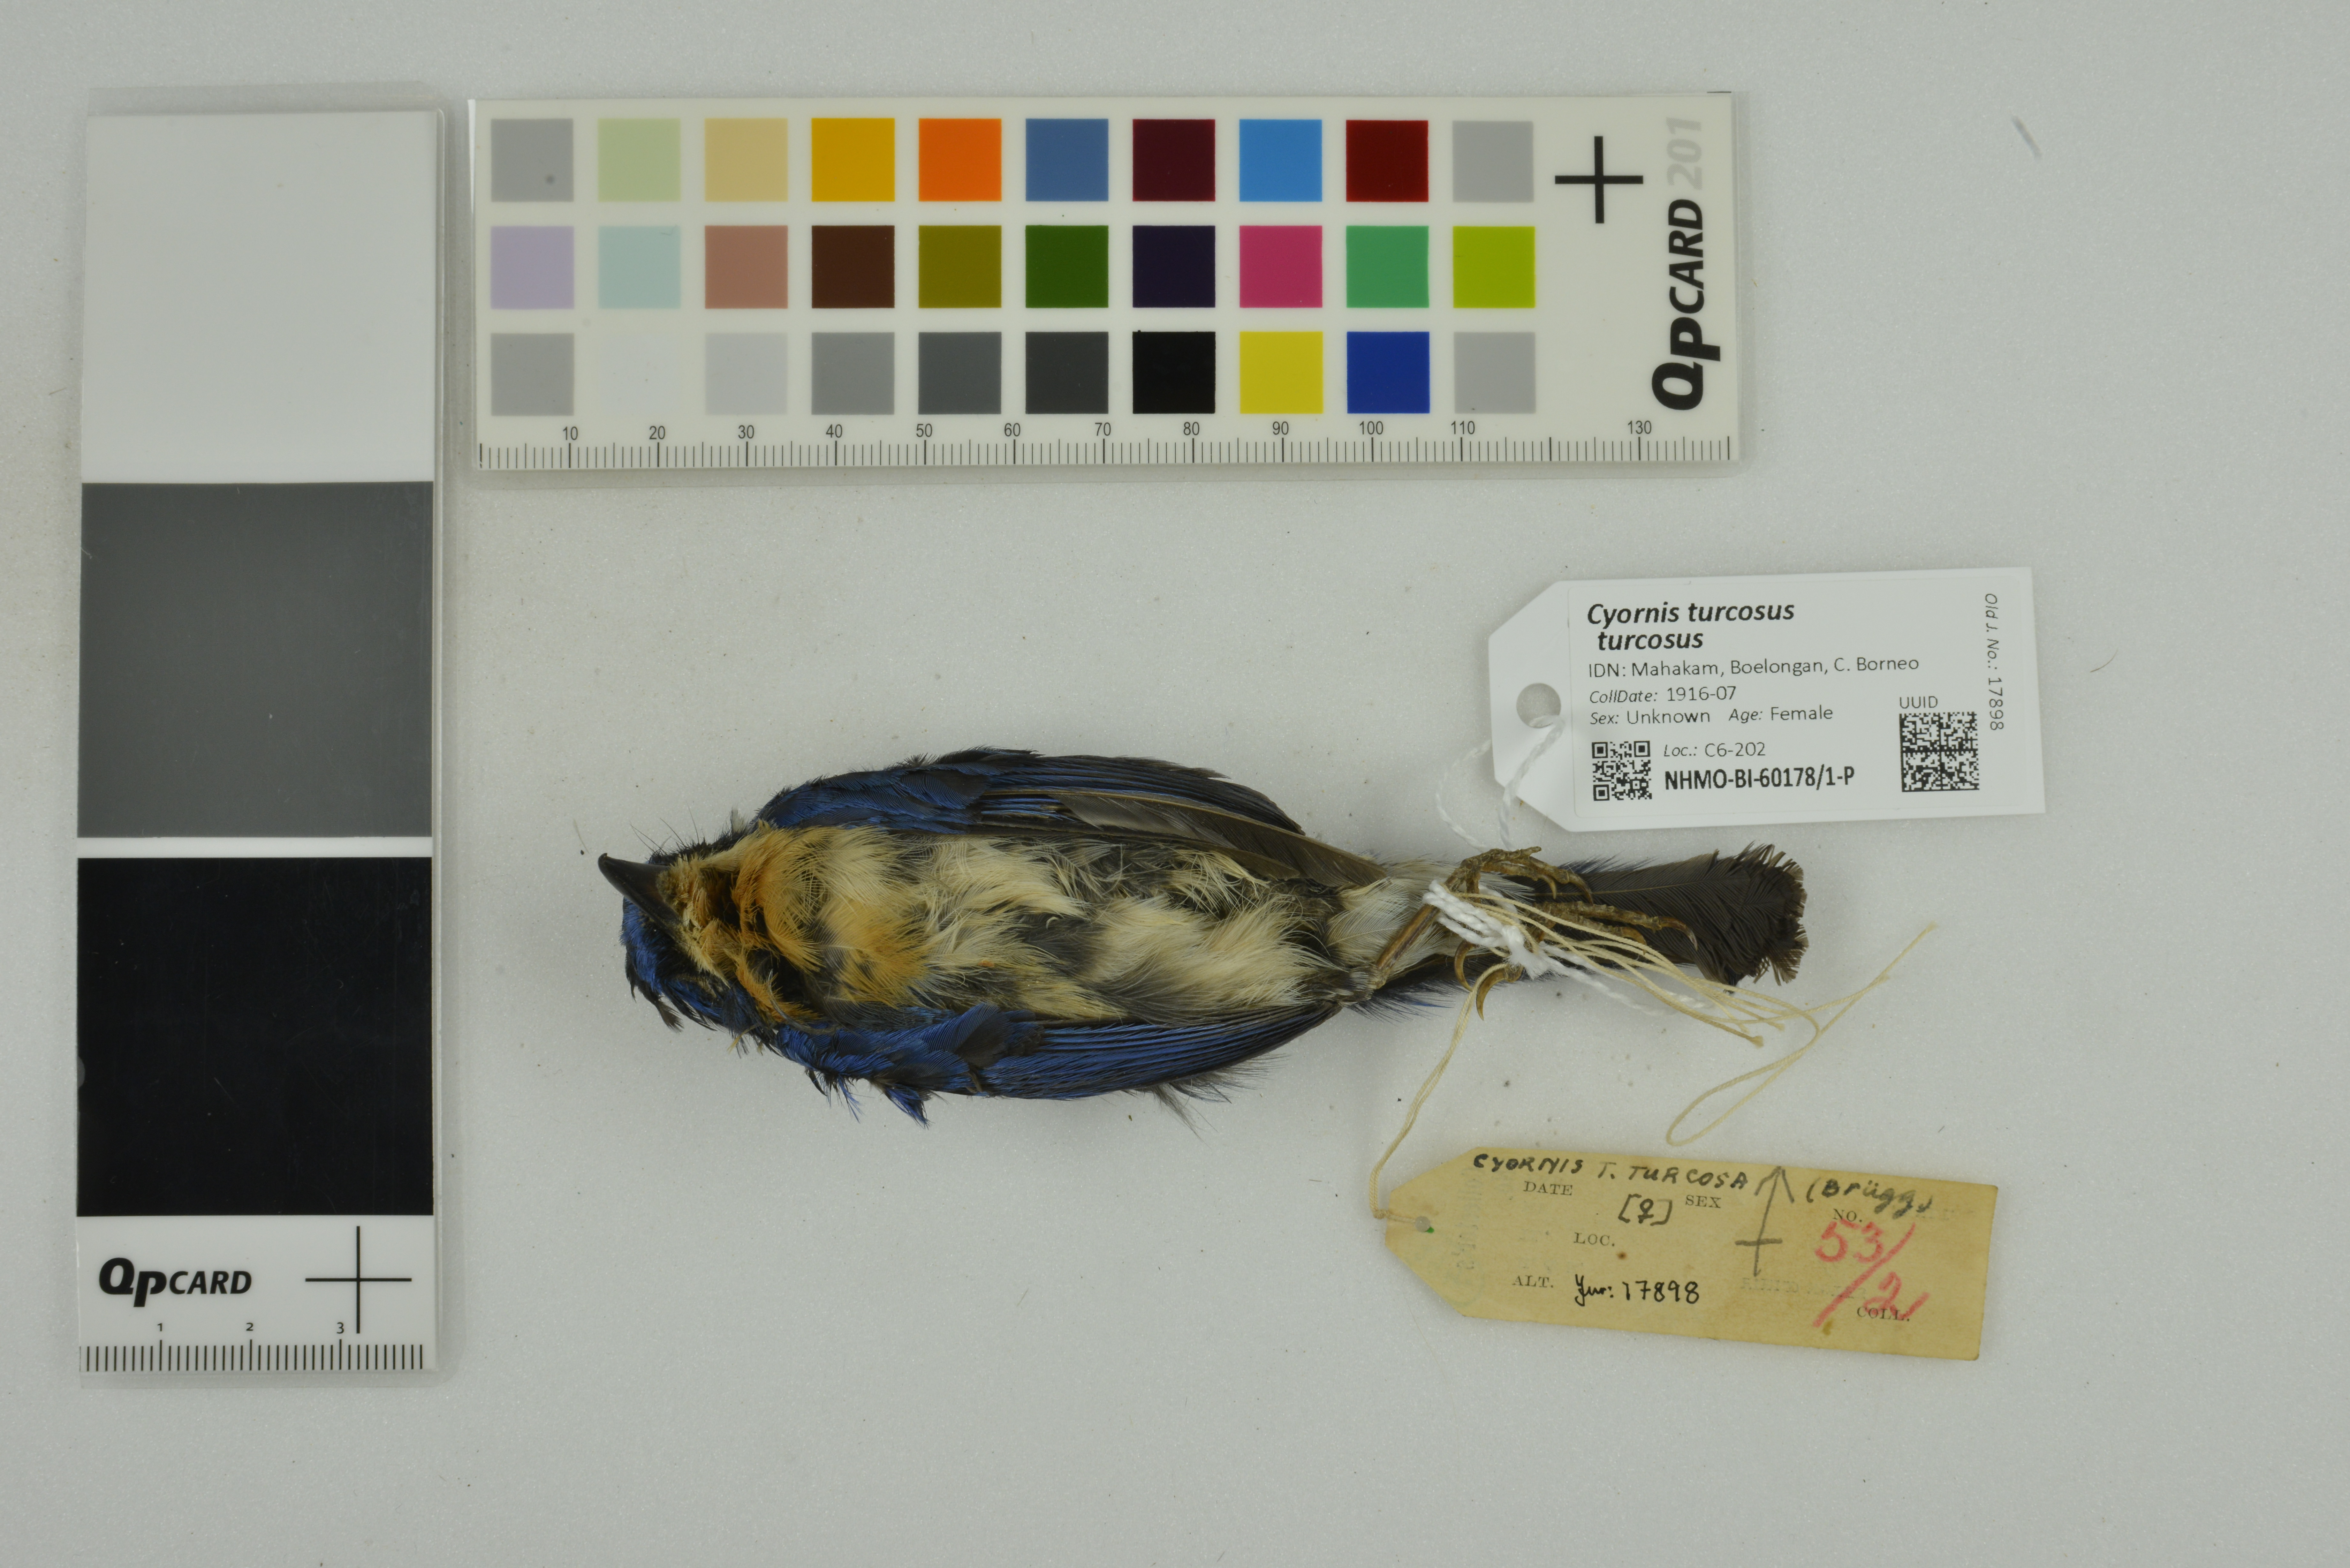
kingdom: Animalia
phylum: Chordata
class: Aves
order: Passeriformes
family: Muscicapidae
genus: Cyornis
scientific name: Cyornis turcosus
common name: Malaysian blue flycatcher
